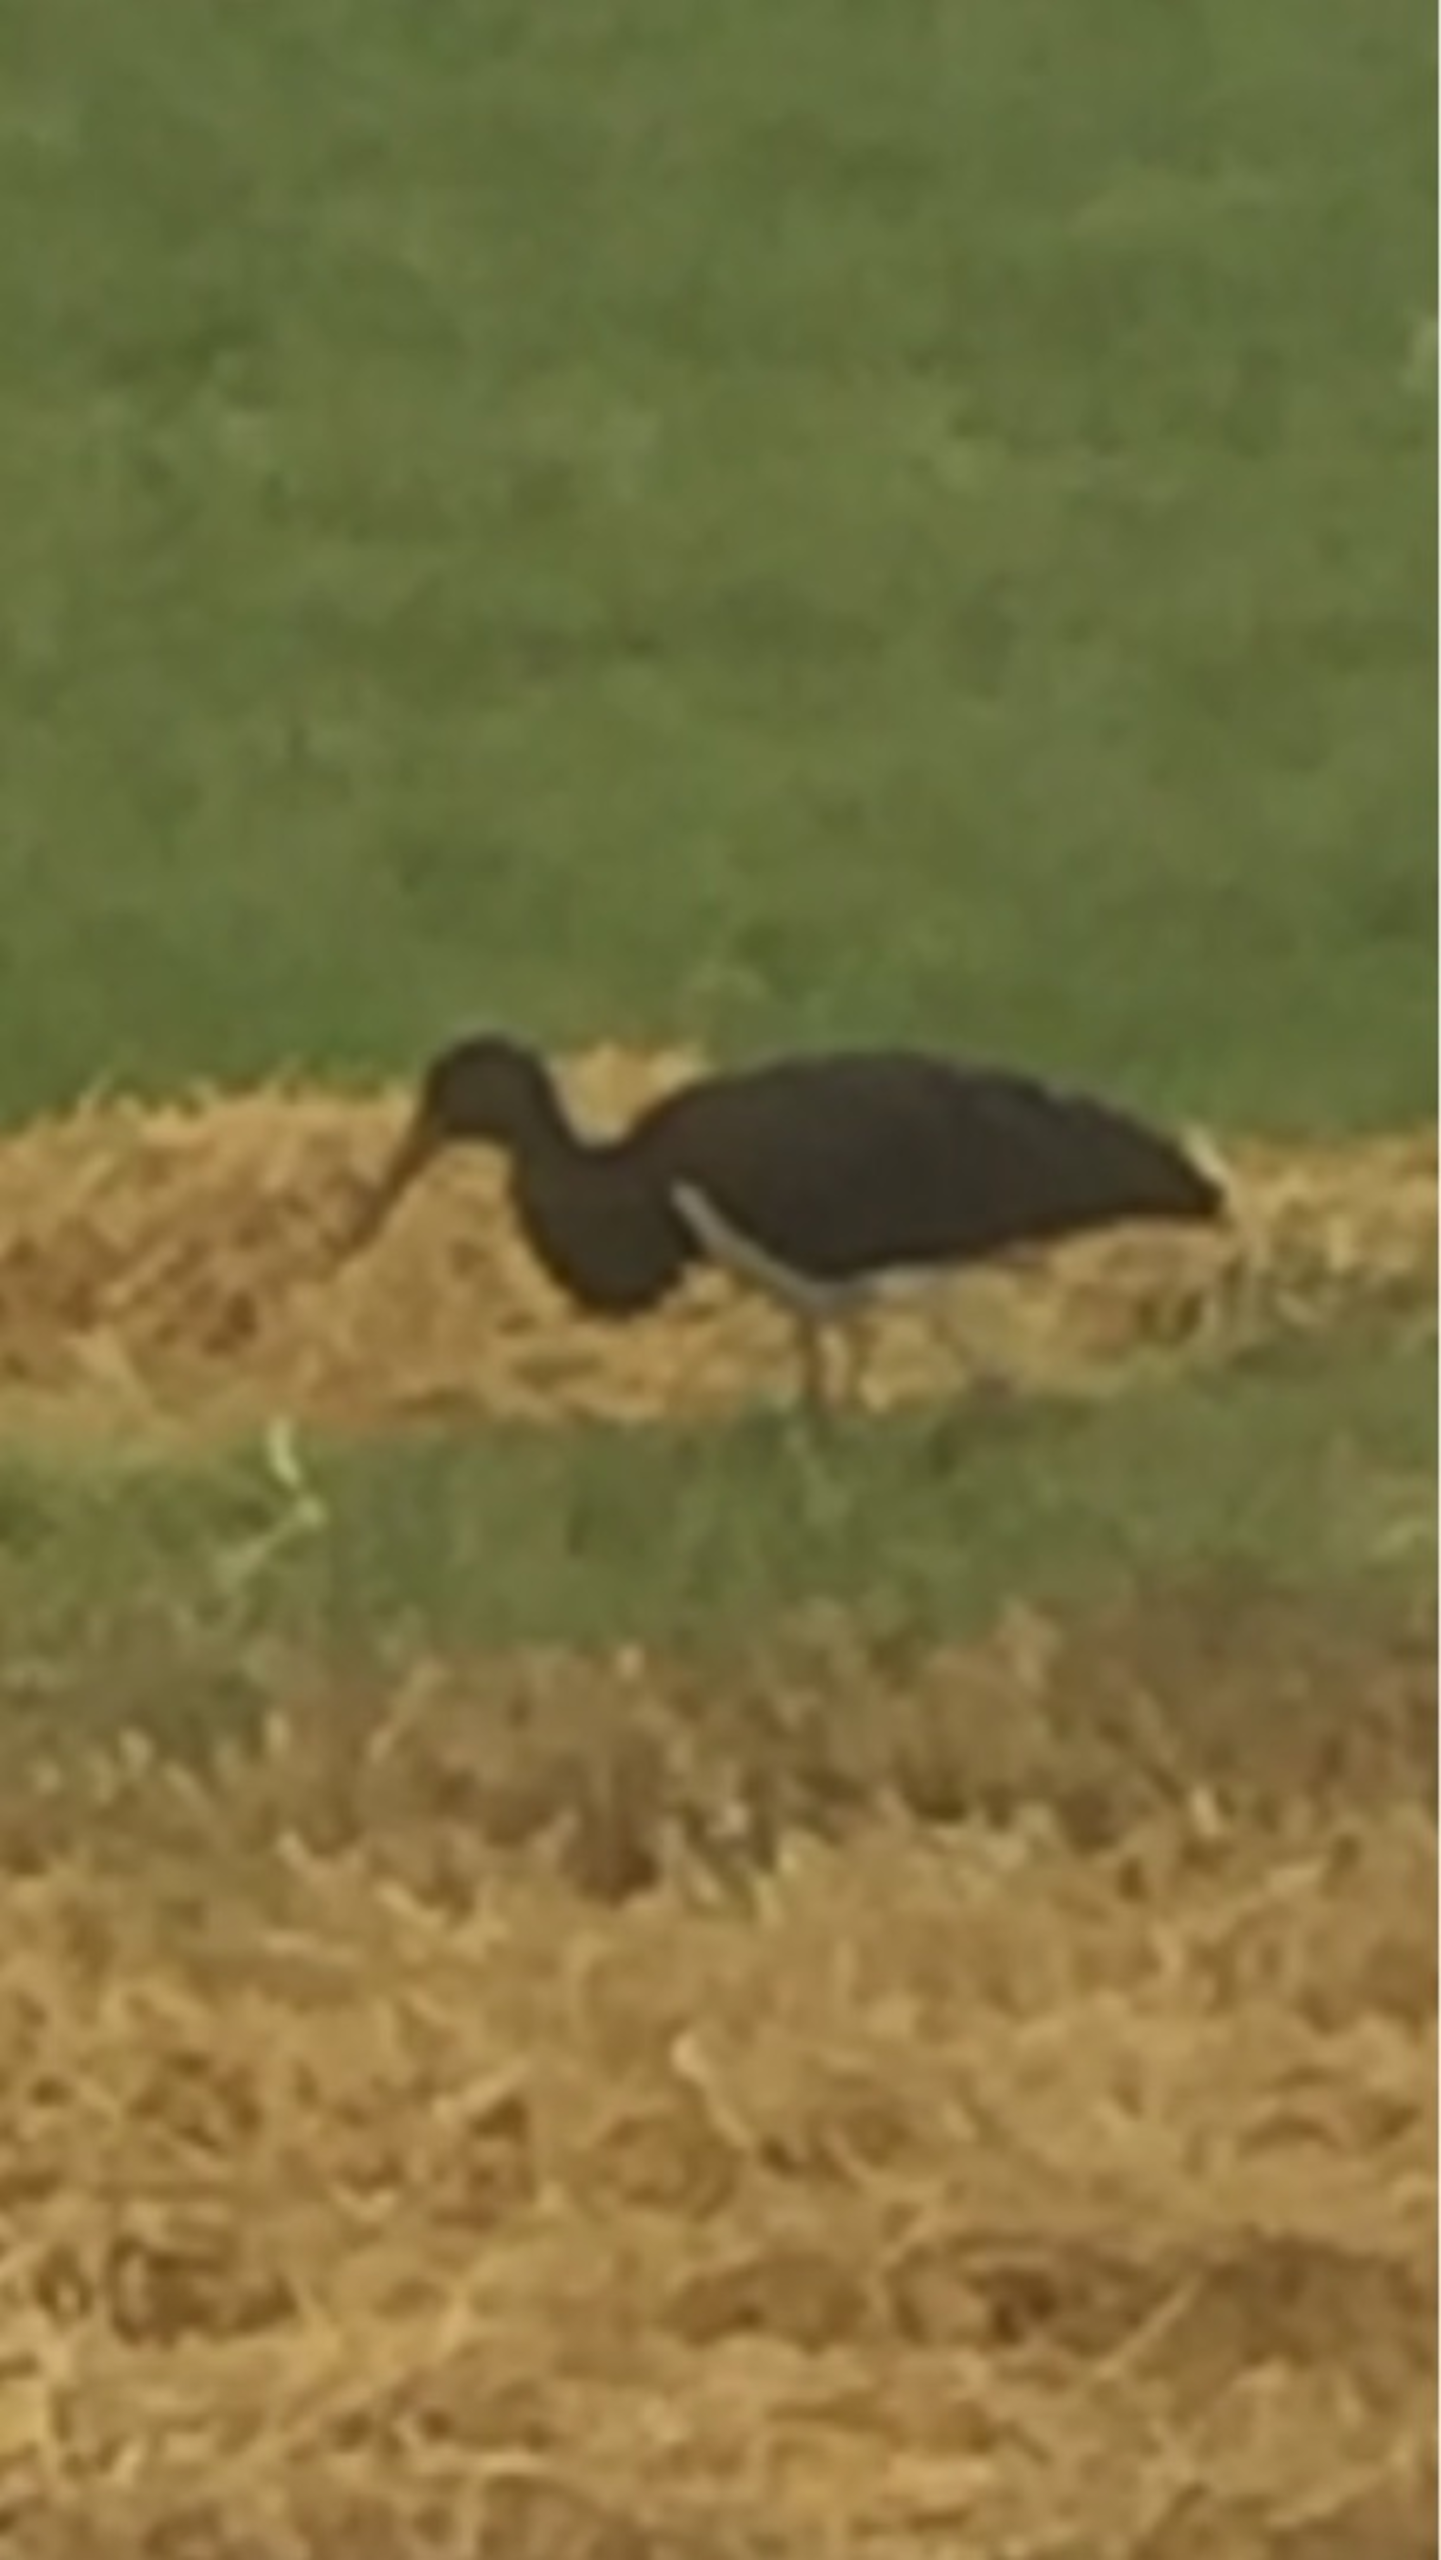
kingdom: Animalia
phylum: Chordata
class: Aves
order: Ciconiiformes
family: Ciconiidae
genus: Ciconia
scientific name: Ciconia nigra
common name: Sort stork
